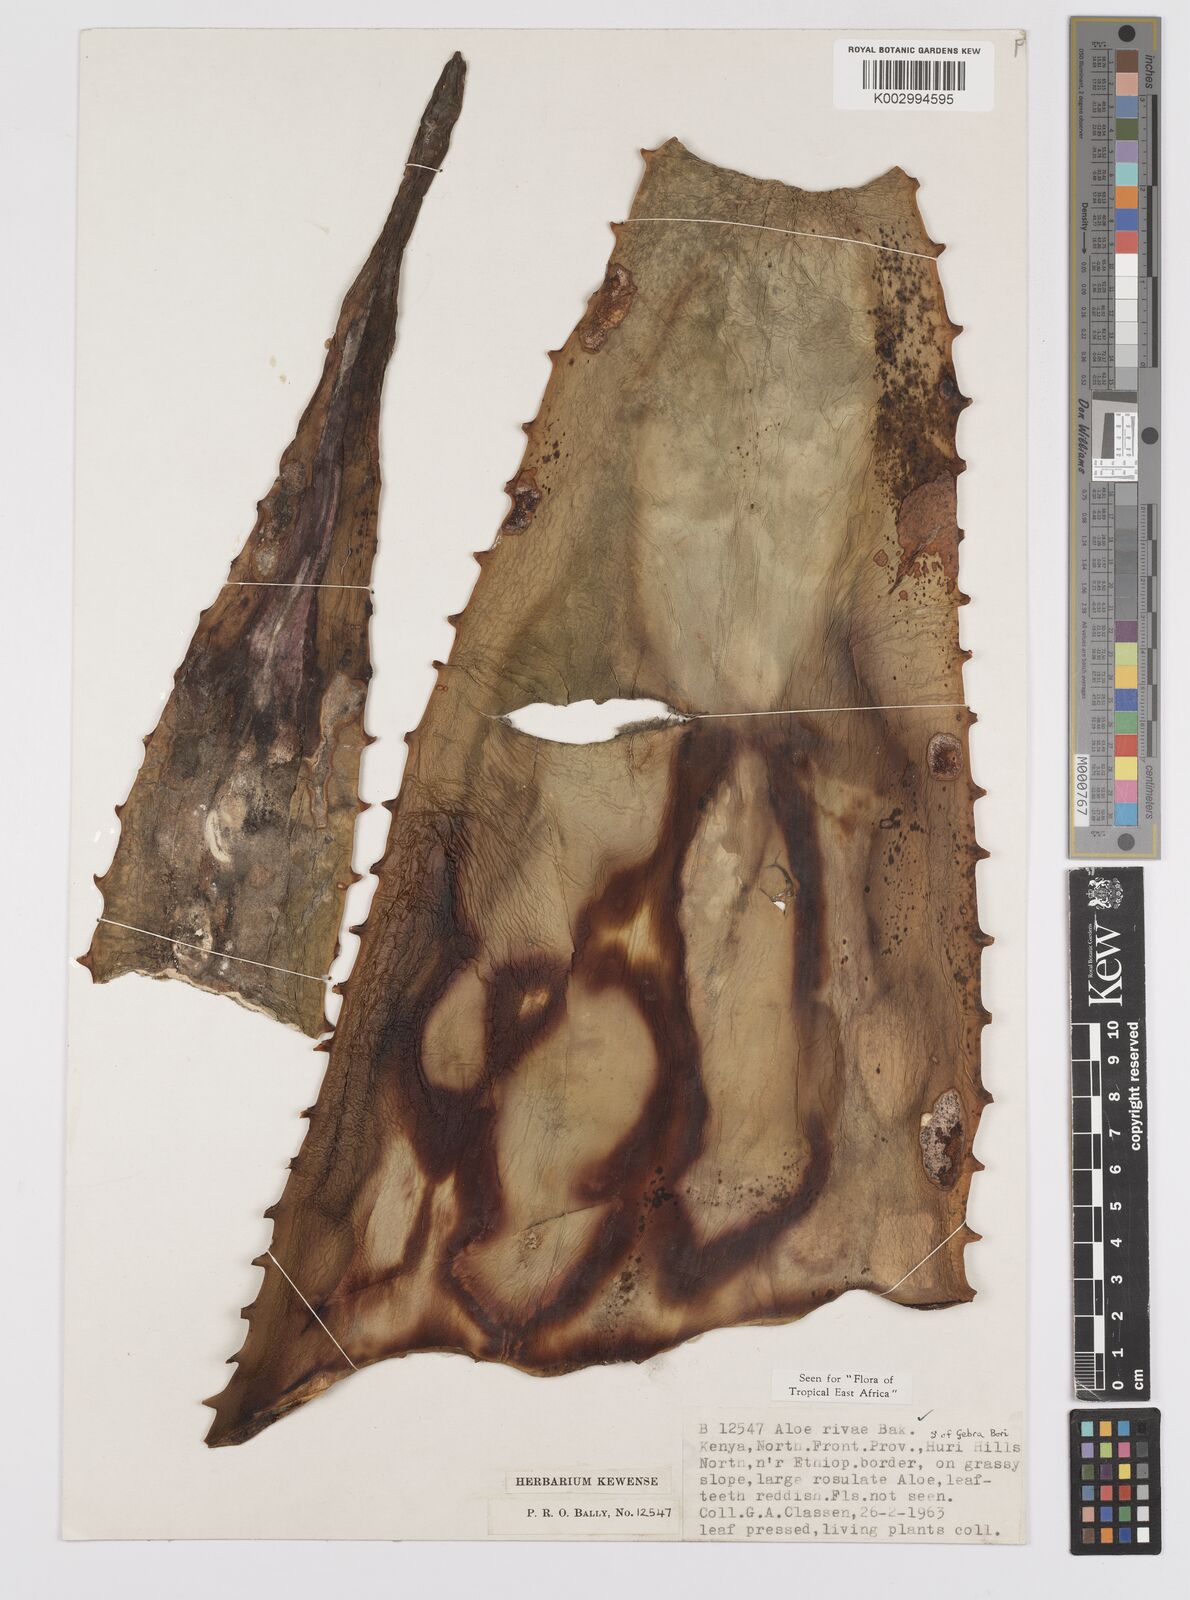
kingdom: Plantae
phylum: Tracheophyta
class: Liliopsida
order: Asparagales
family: Asphodelaceae
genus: Aloe
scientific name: Aloe rivae
